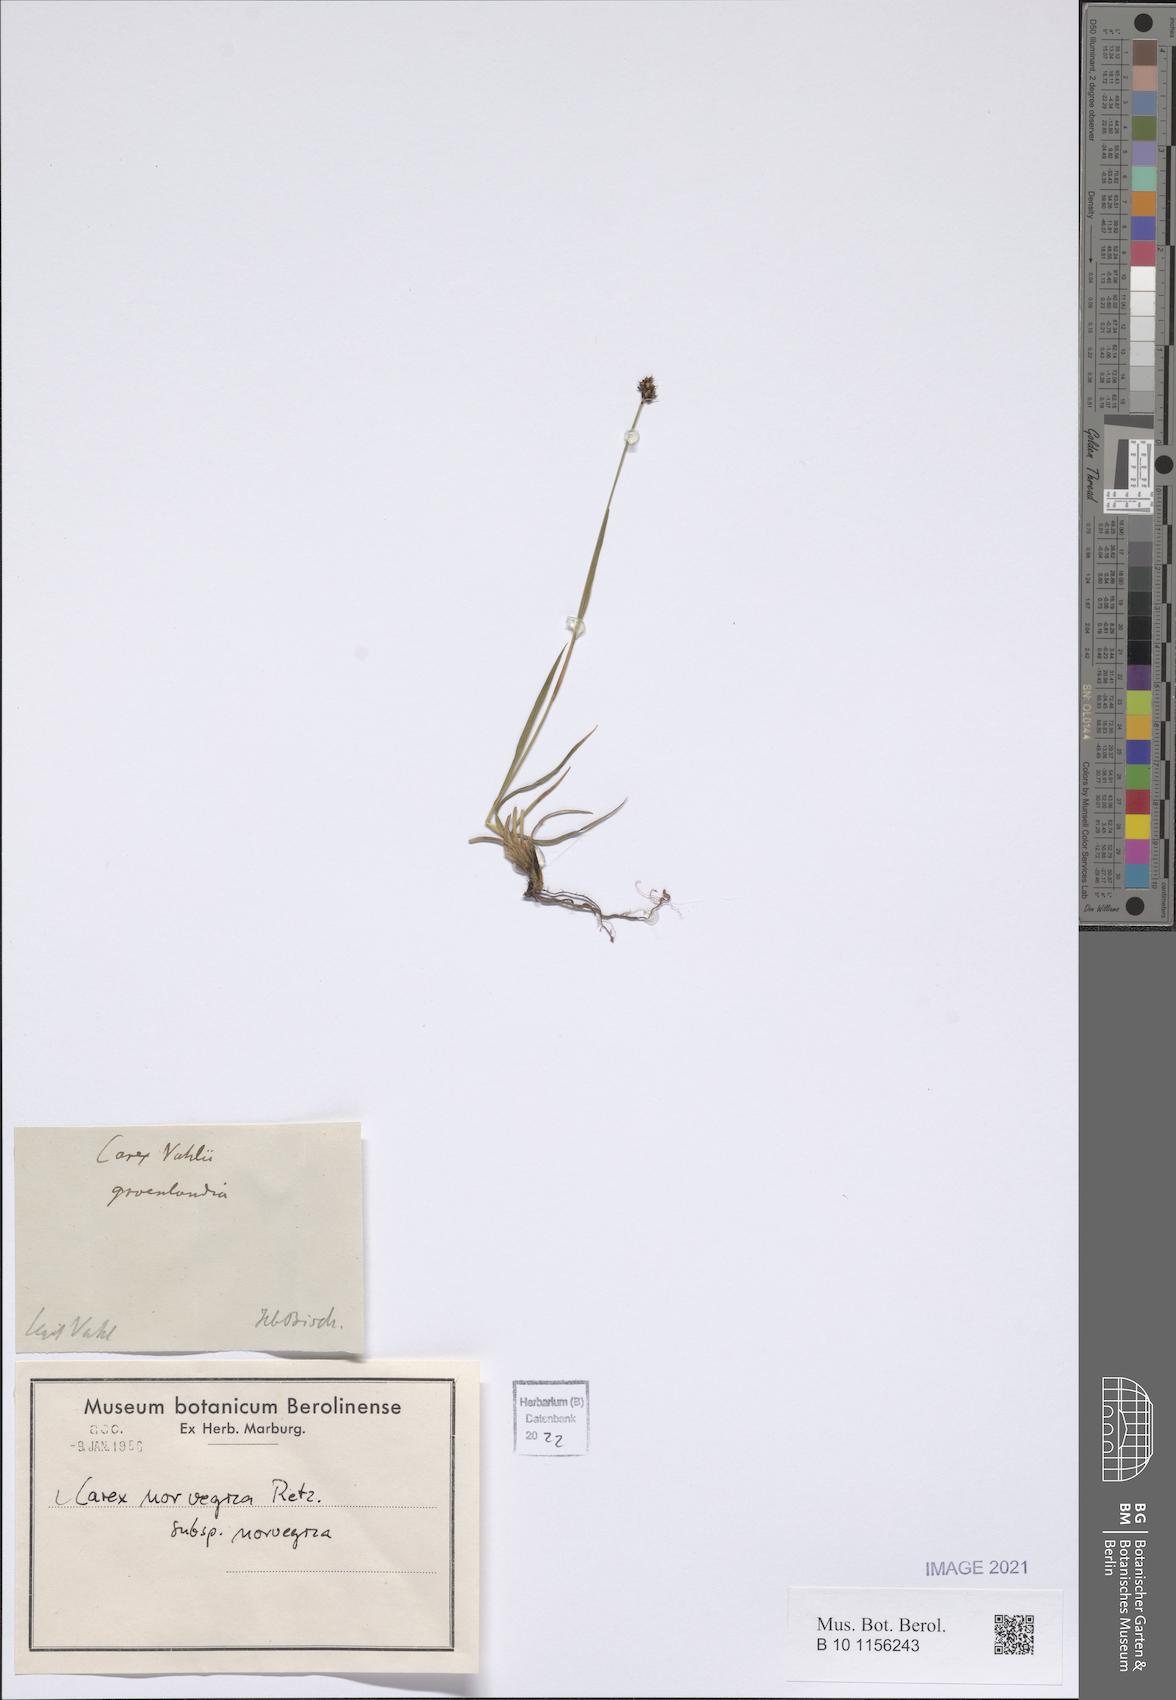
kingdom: Plantae
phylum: Tracheophyta
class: Liliopsida
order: Poales
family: Cyperaceae
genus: Carex
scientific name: Carex norvegica
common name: Close-headed alpine-sedge
